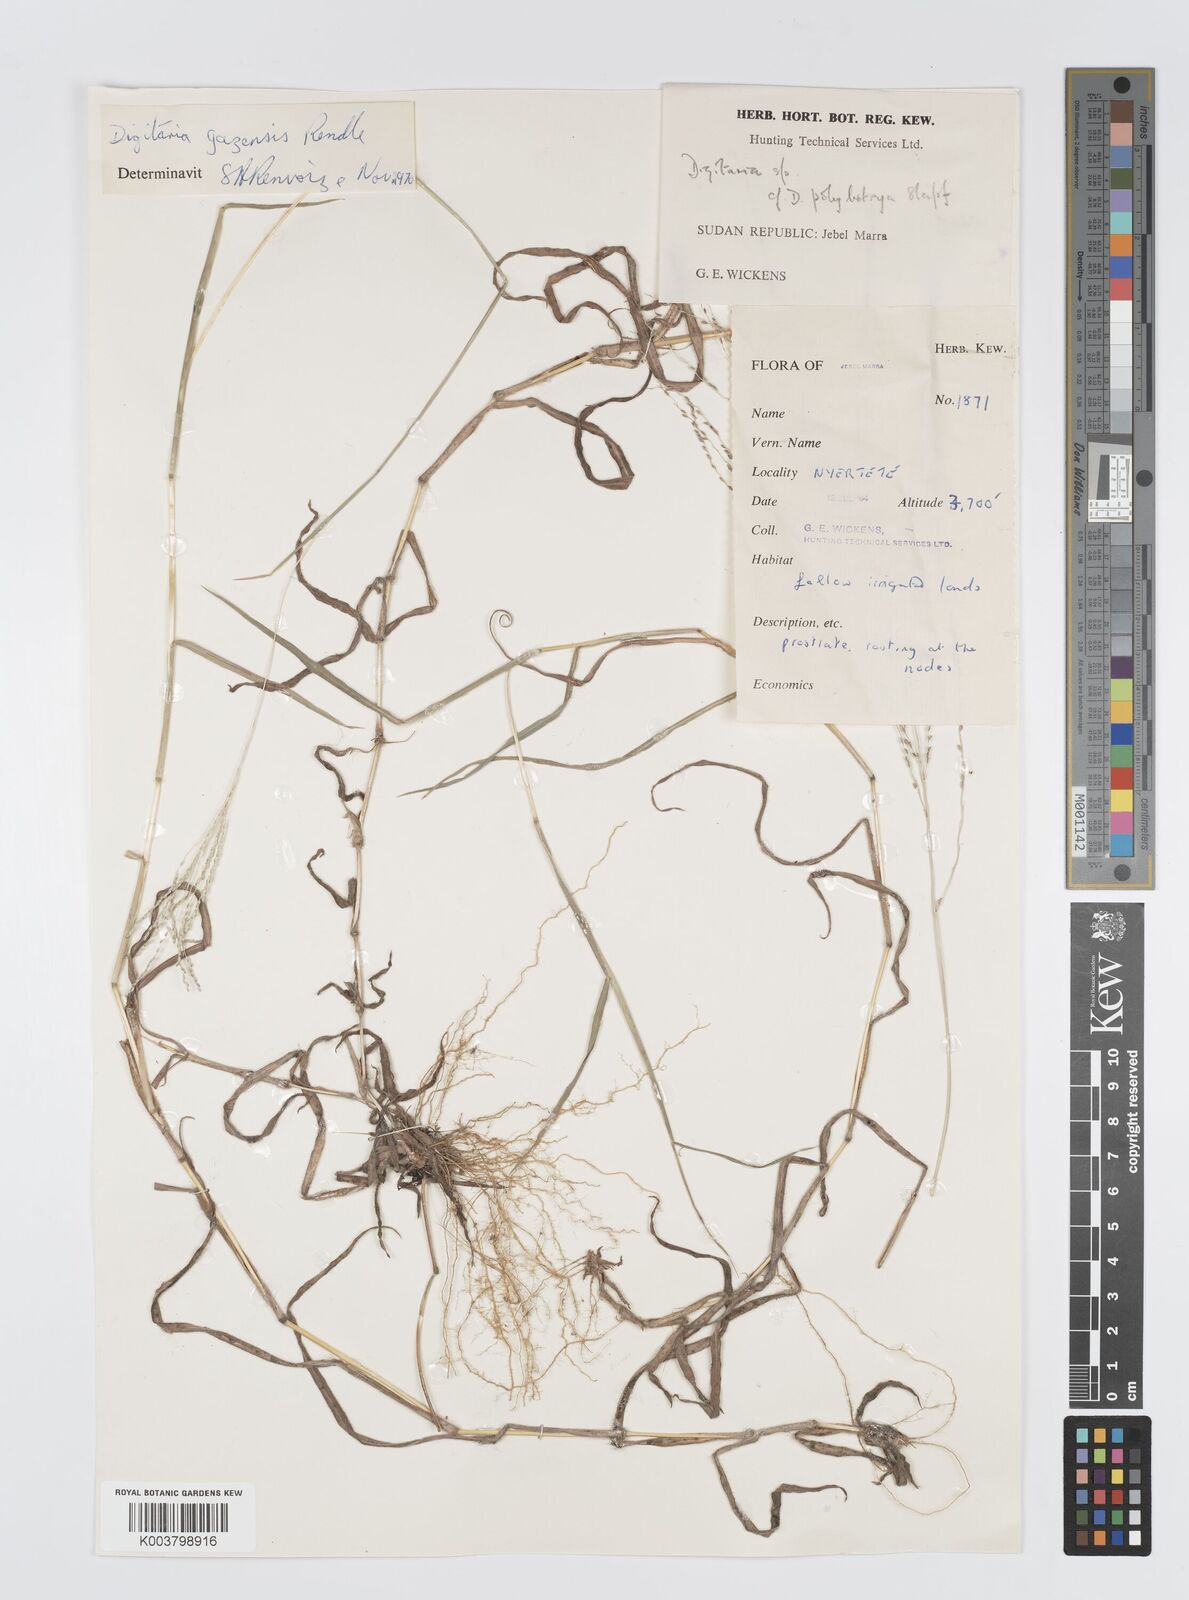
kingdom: Plantae
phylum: Tracheophyta
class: Liliopsida
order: Poales
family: Poaceae
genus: Digitaria
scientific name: Digitaria gazensis
